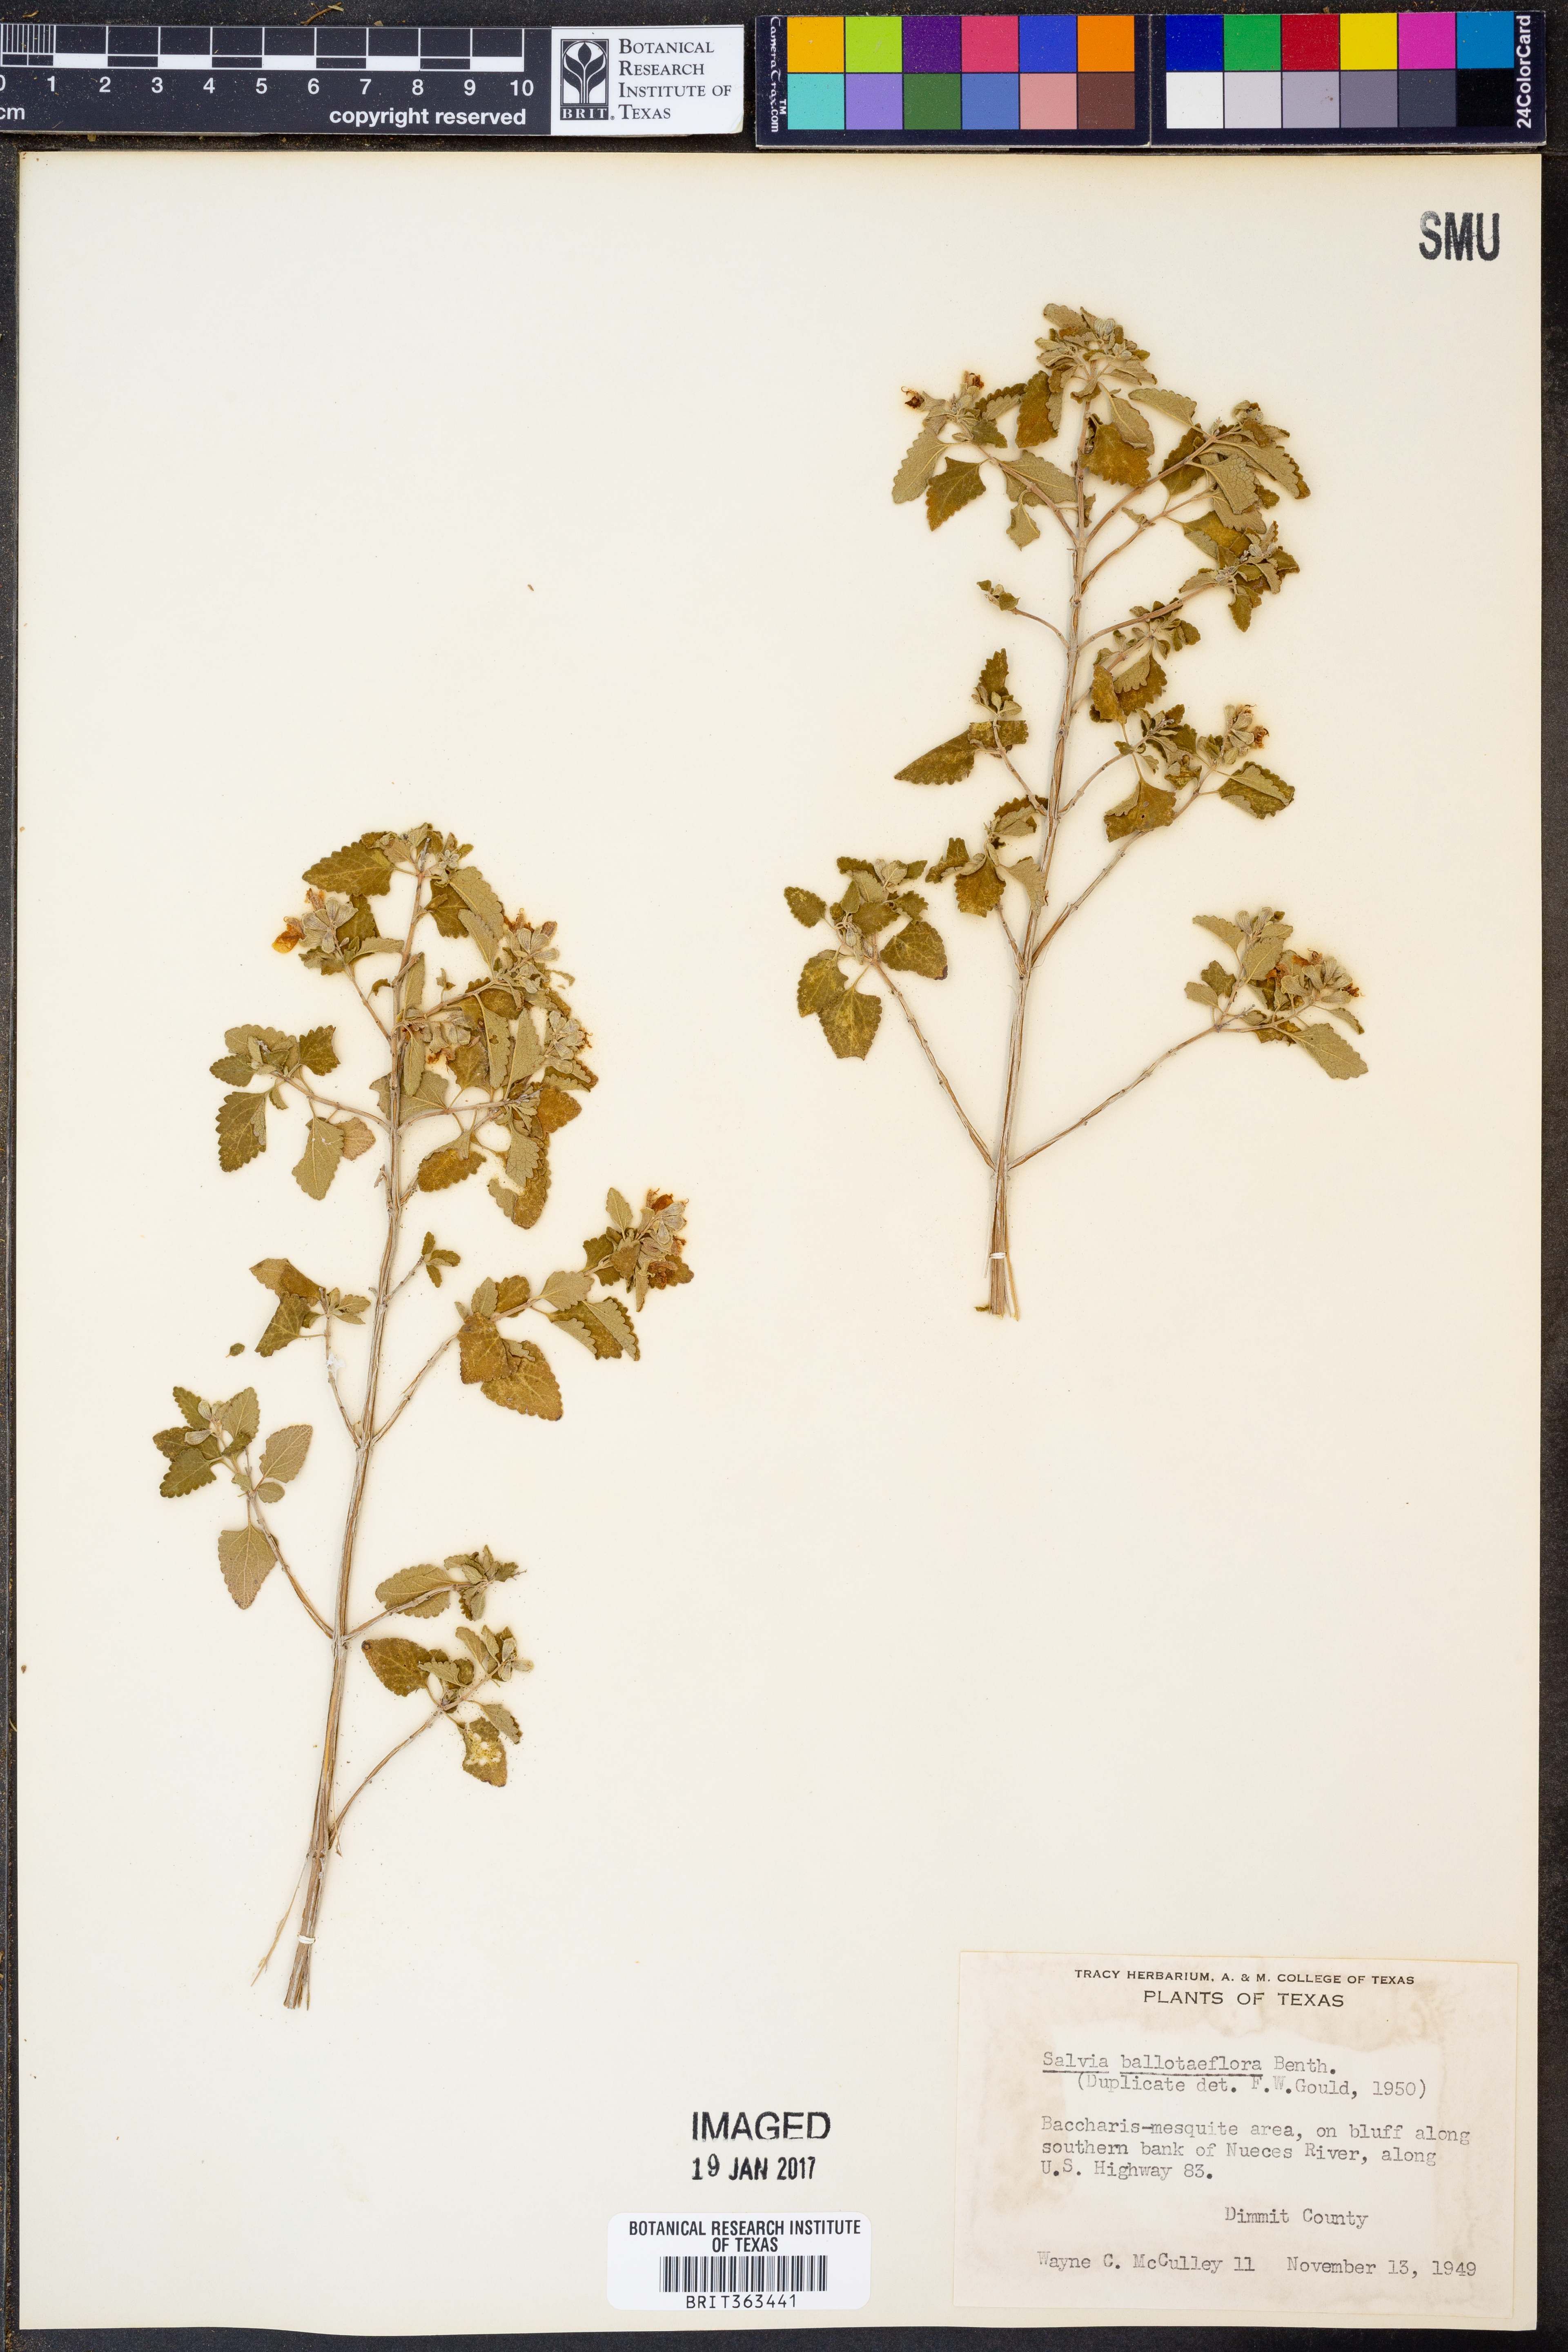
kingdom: Plantae
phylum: Tracheophyta
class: Magnoliopsida
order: Lamiales
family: Lamiaceae
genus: Salvia
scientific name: Salvia ballotiflora
